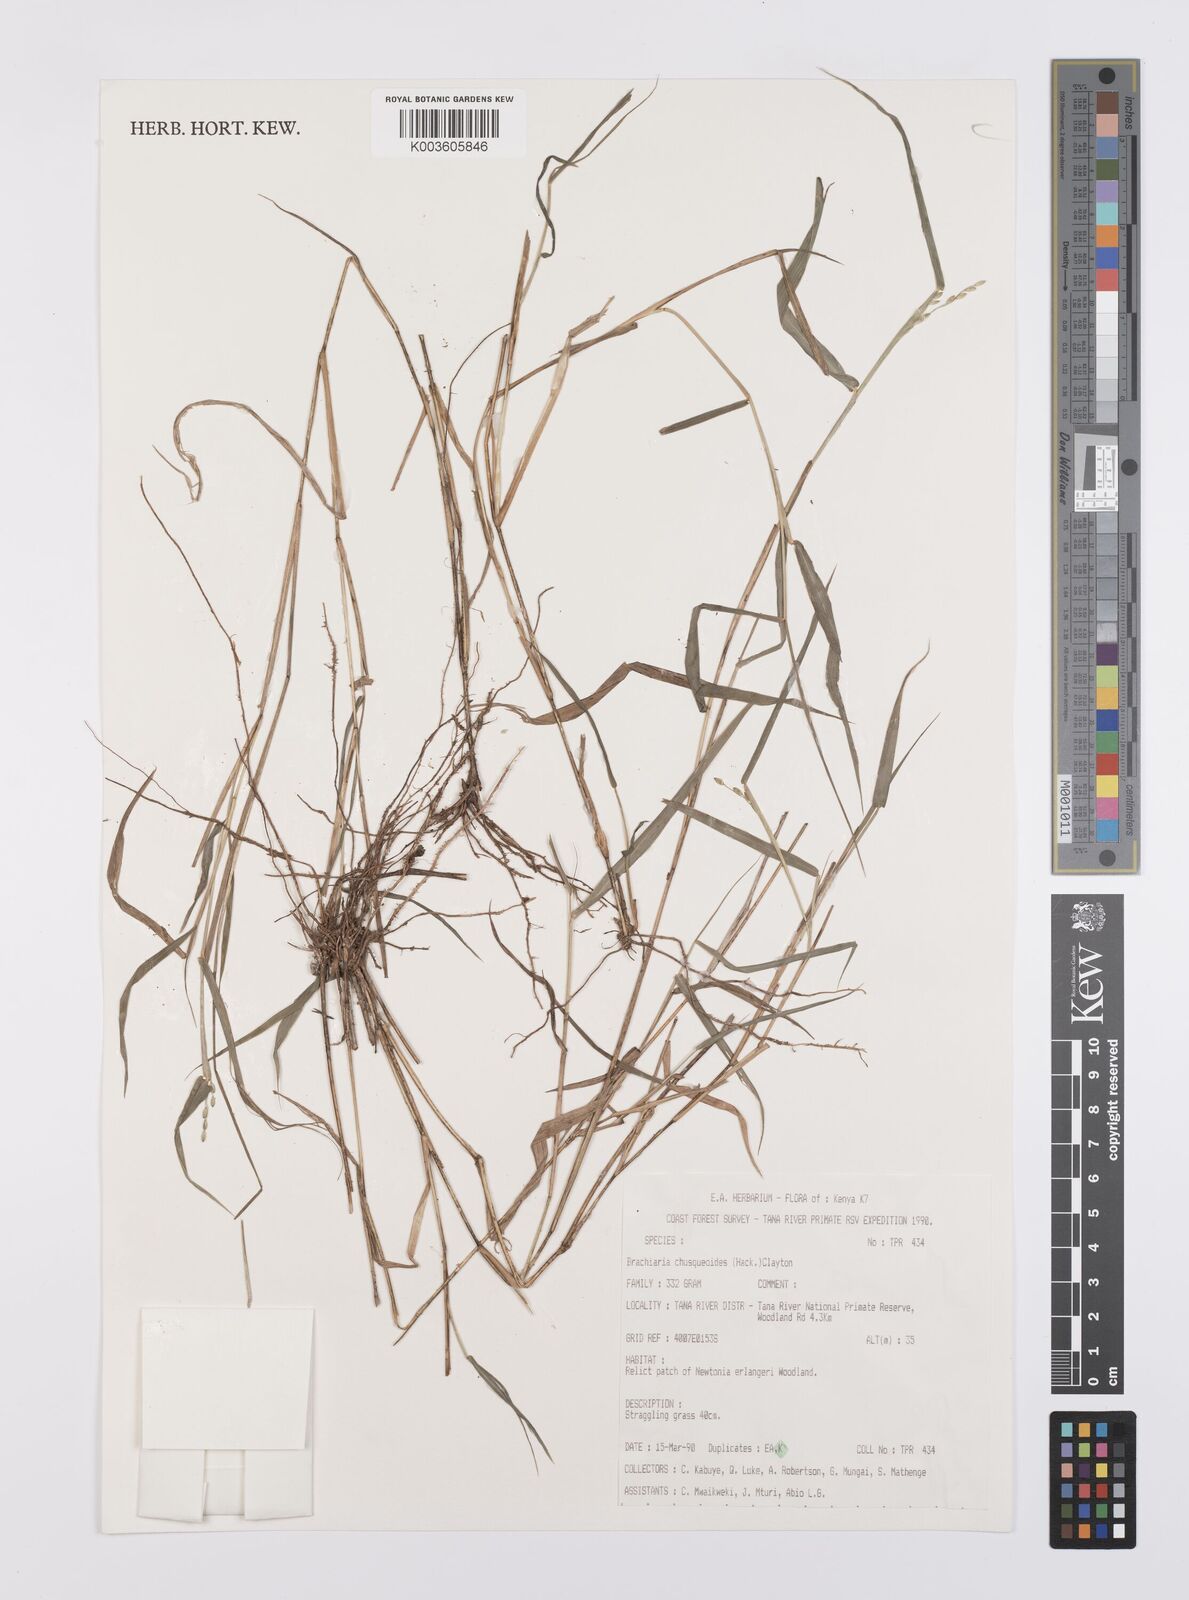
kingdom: Plantae
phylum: Tracheophyta
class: Liliopsida
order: Poales
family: Poaceae
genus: Urochloa
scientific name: Urochloa chusqueoides
